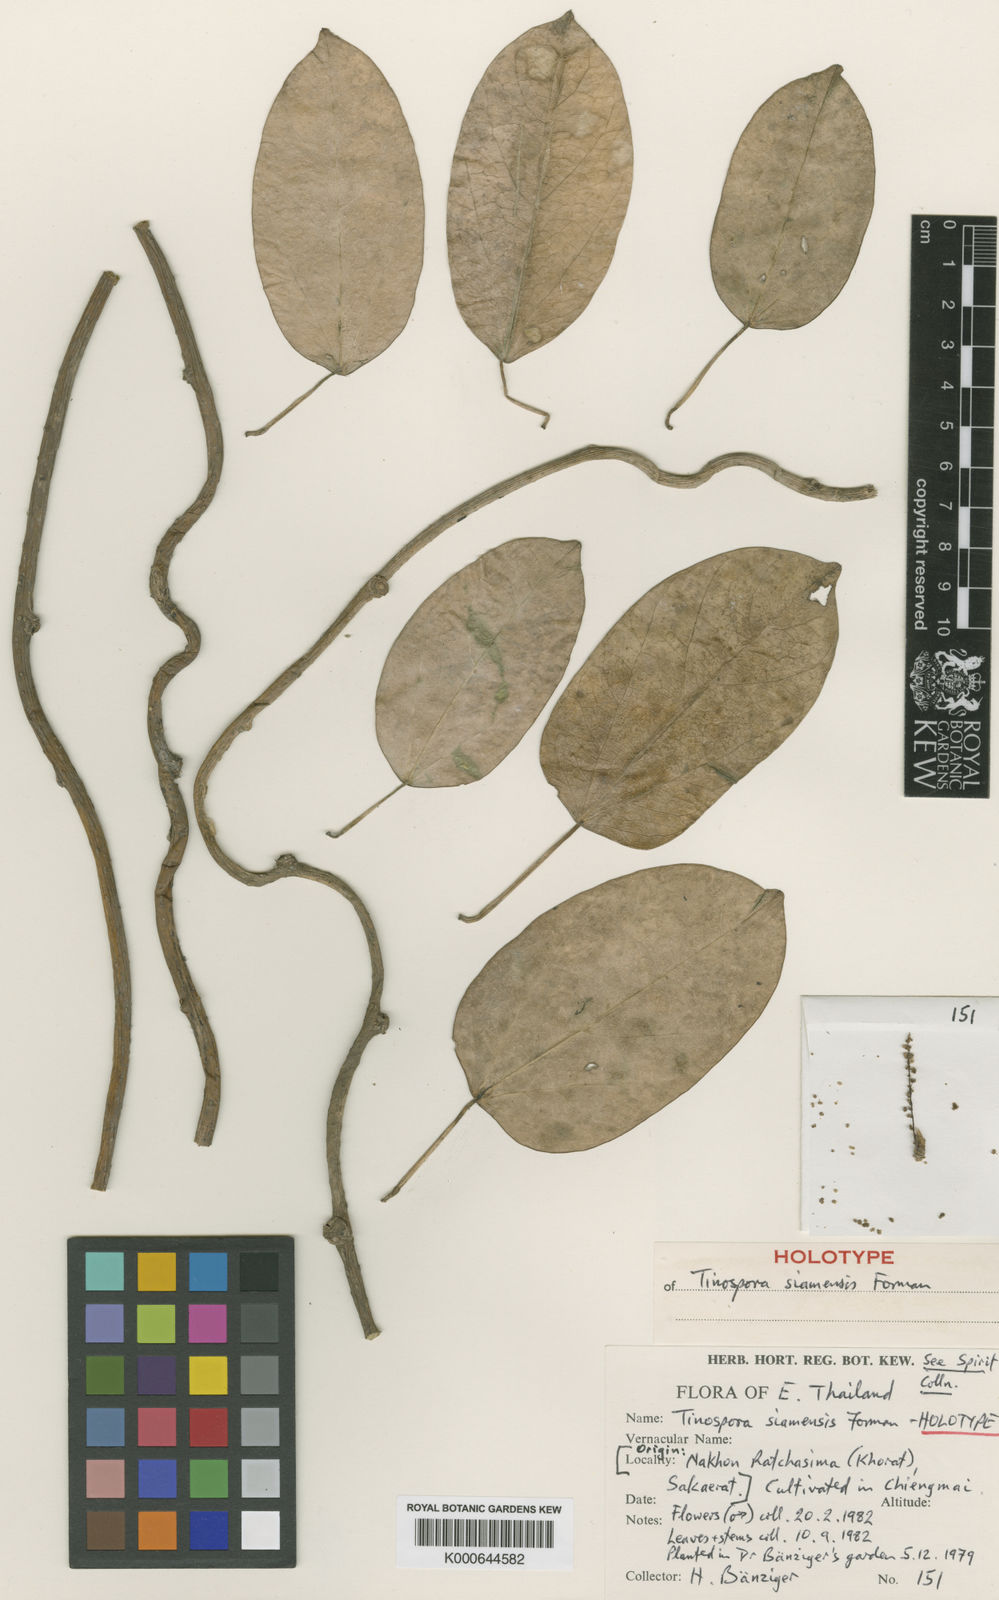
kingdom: Plantae
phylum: Tracheophyta
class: Magnoliopsida
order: Ranunculales
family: Menispermaceae
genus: Tinospora
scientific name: Tinospora siamensis
